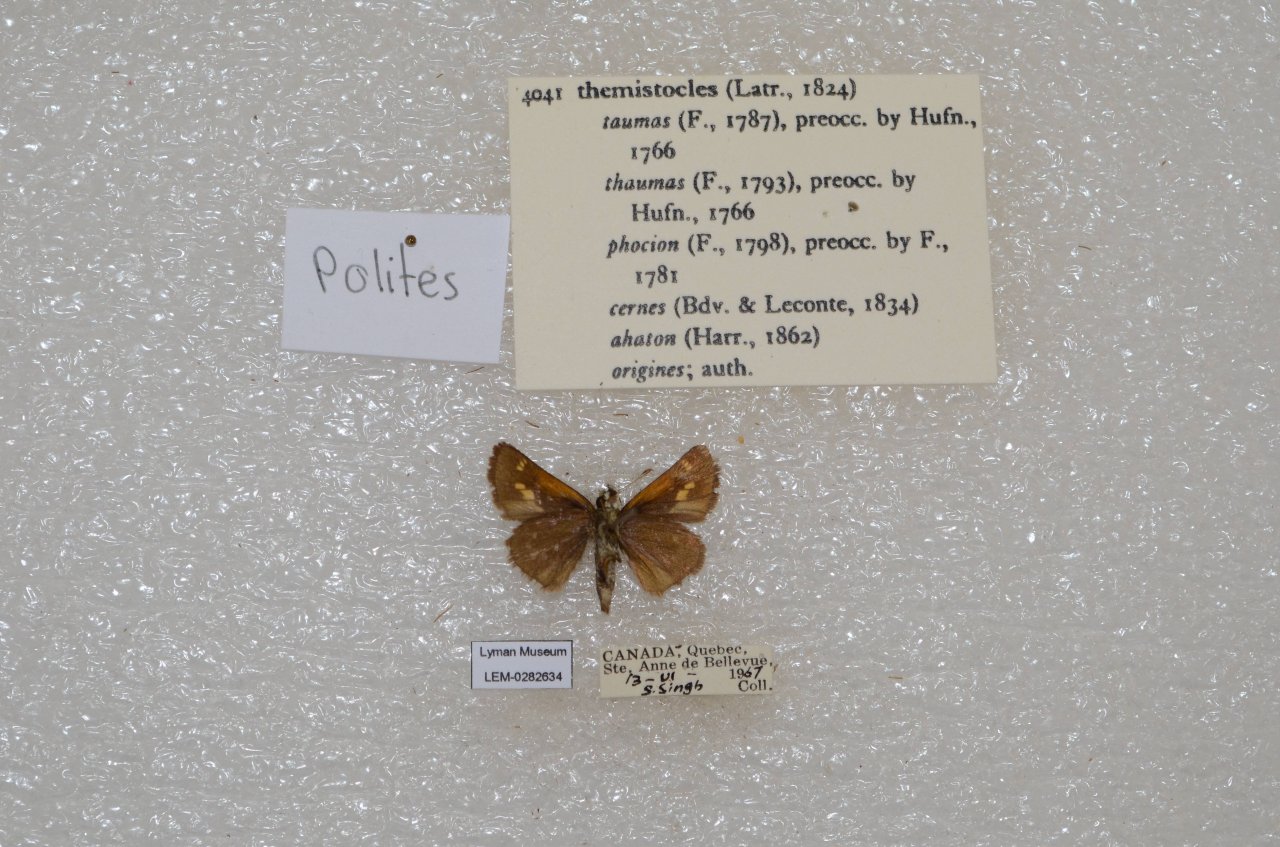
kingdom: Animalia
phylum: Arthropoda
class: Insecta
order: Lepidoptera
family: Hesperiidae
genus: Polites
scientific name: Polites themistocles
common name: Tawny-edged Skipper
